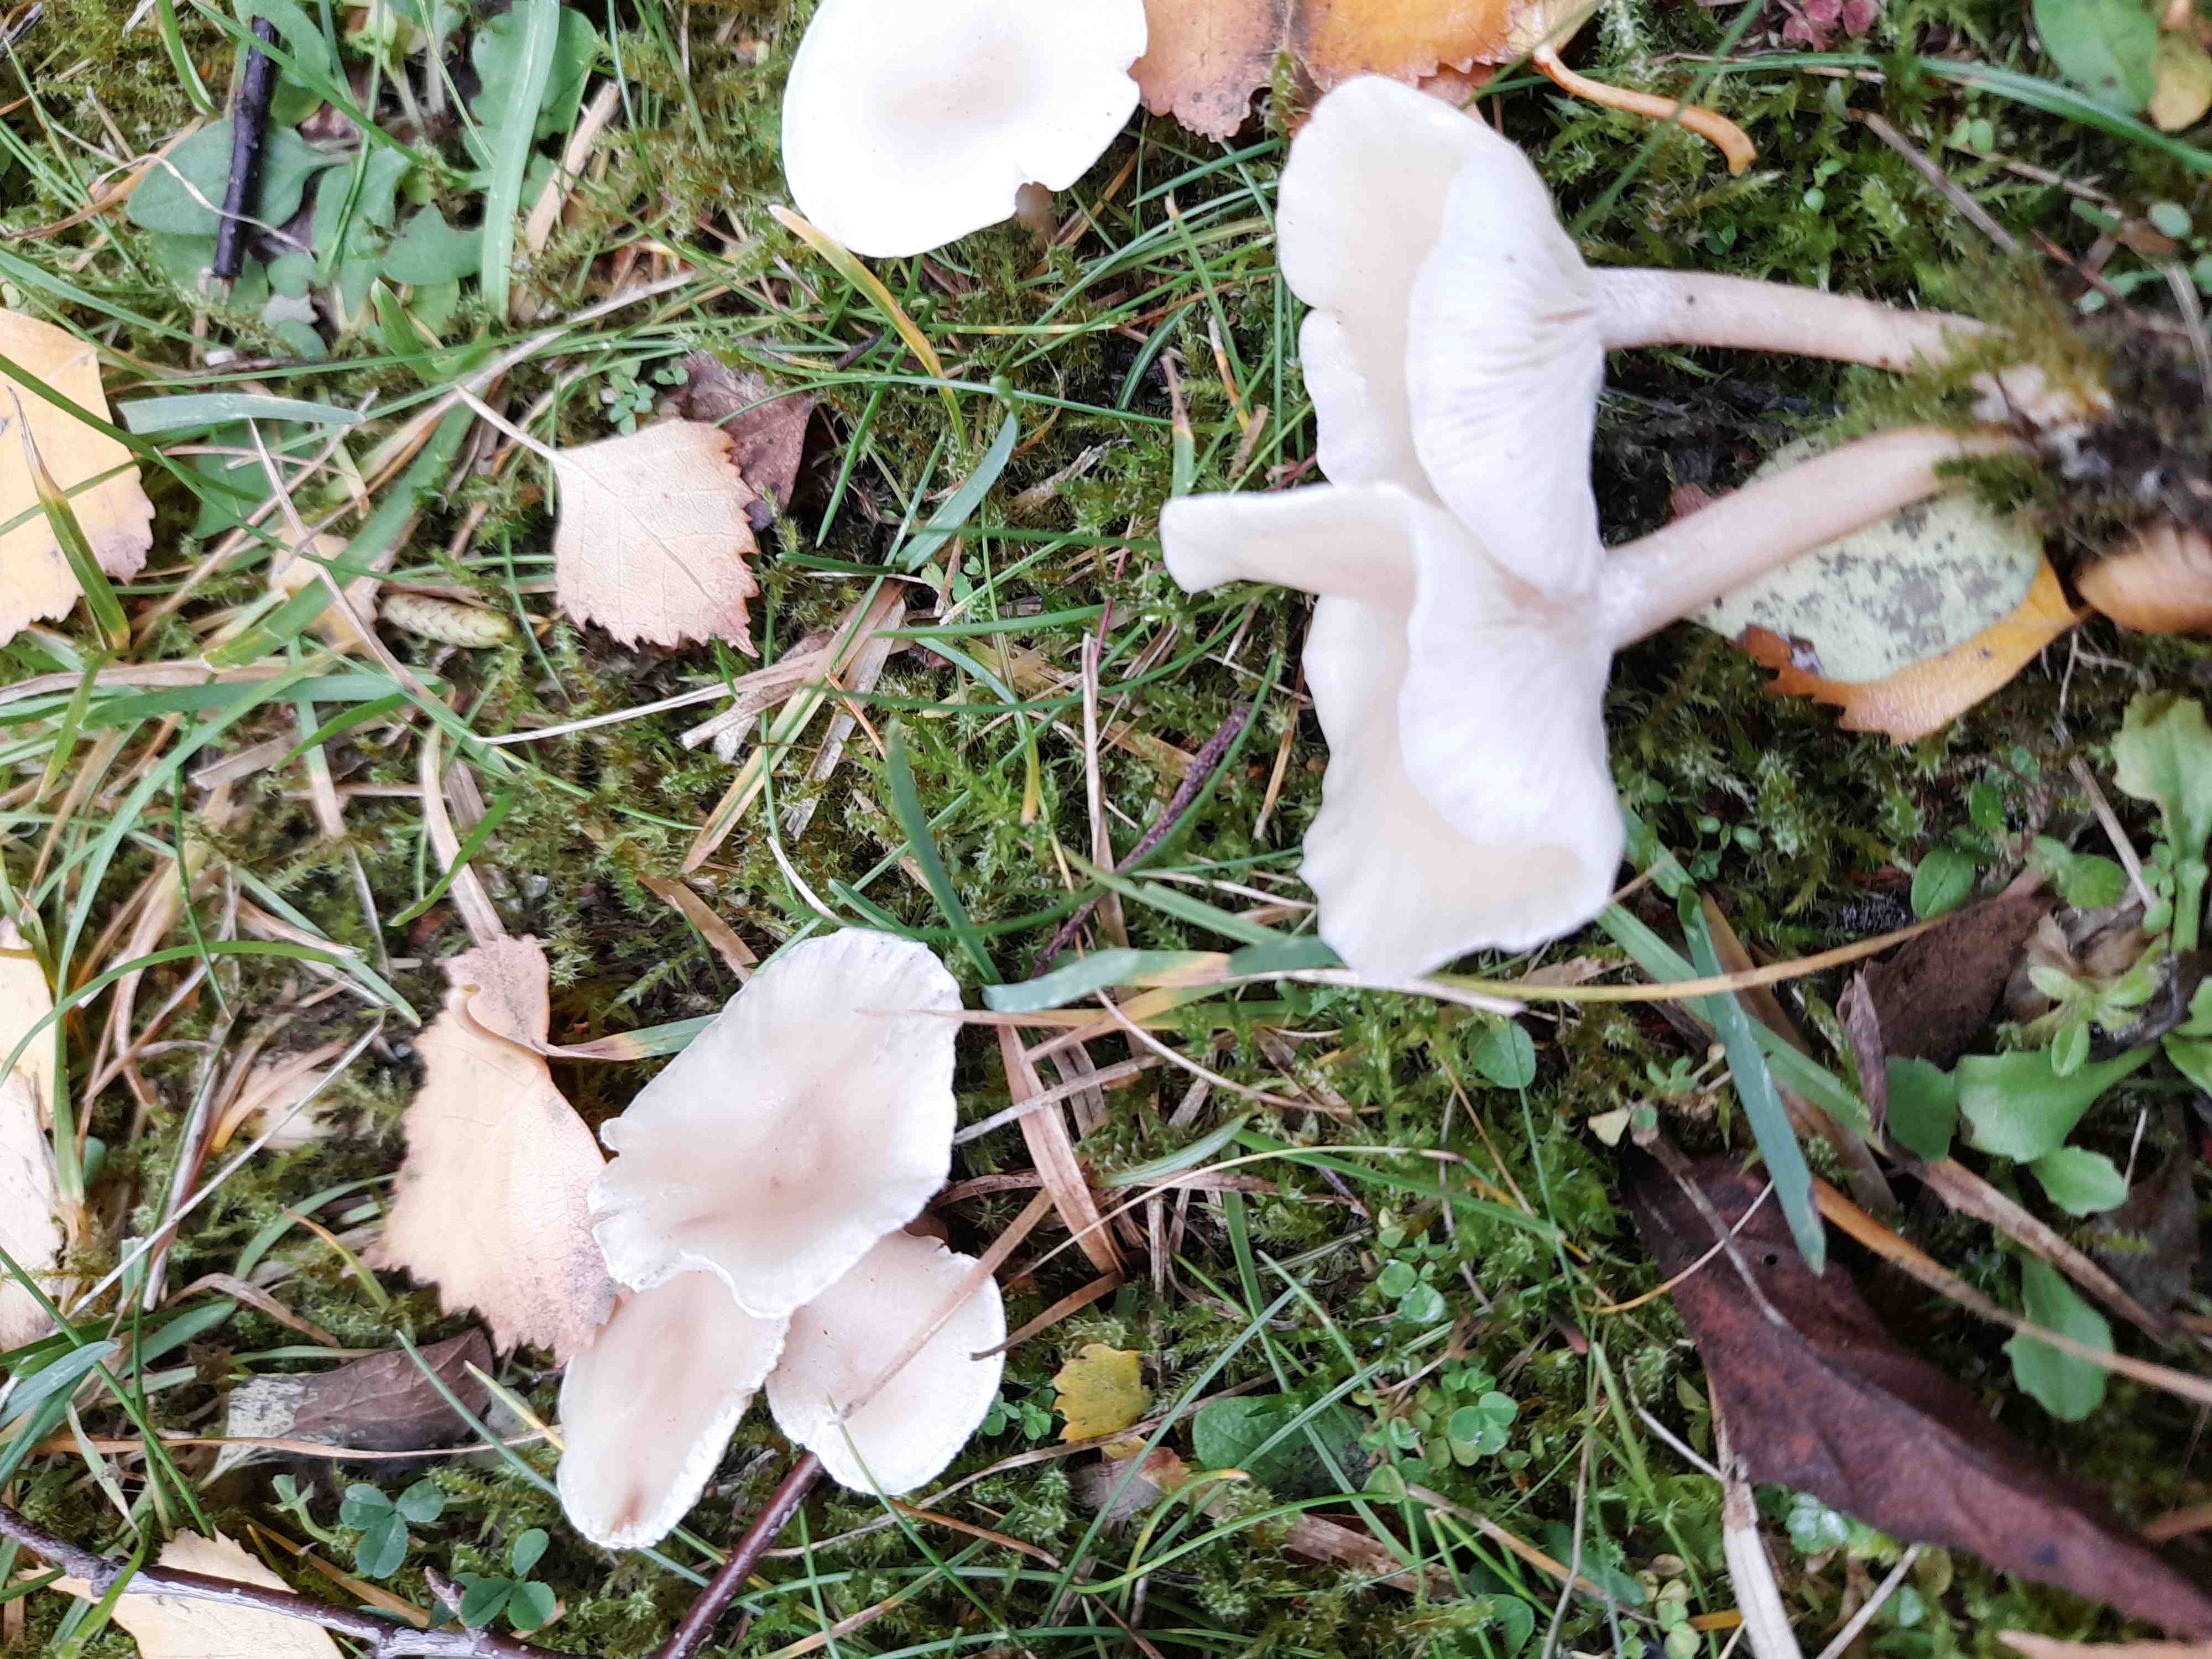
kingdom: Fungi
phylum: Basidiomycota
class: Agaricomycetes
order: Agaricales
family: Tricholomataceae
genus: Clitocybe
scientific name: Clitocybe fragrans
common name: vellugtende tragthat
